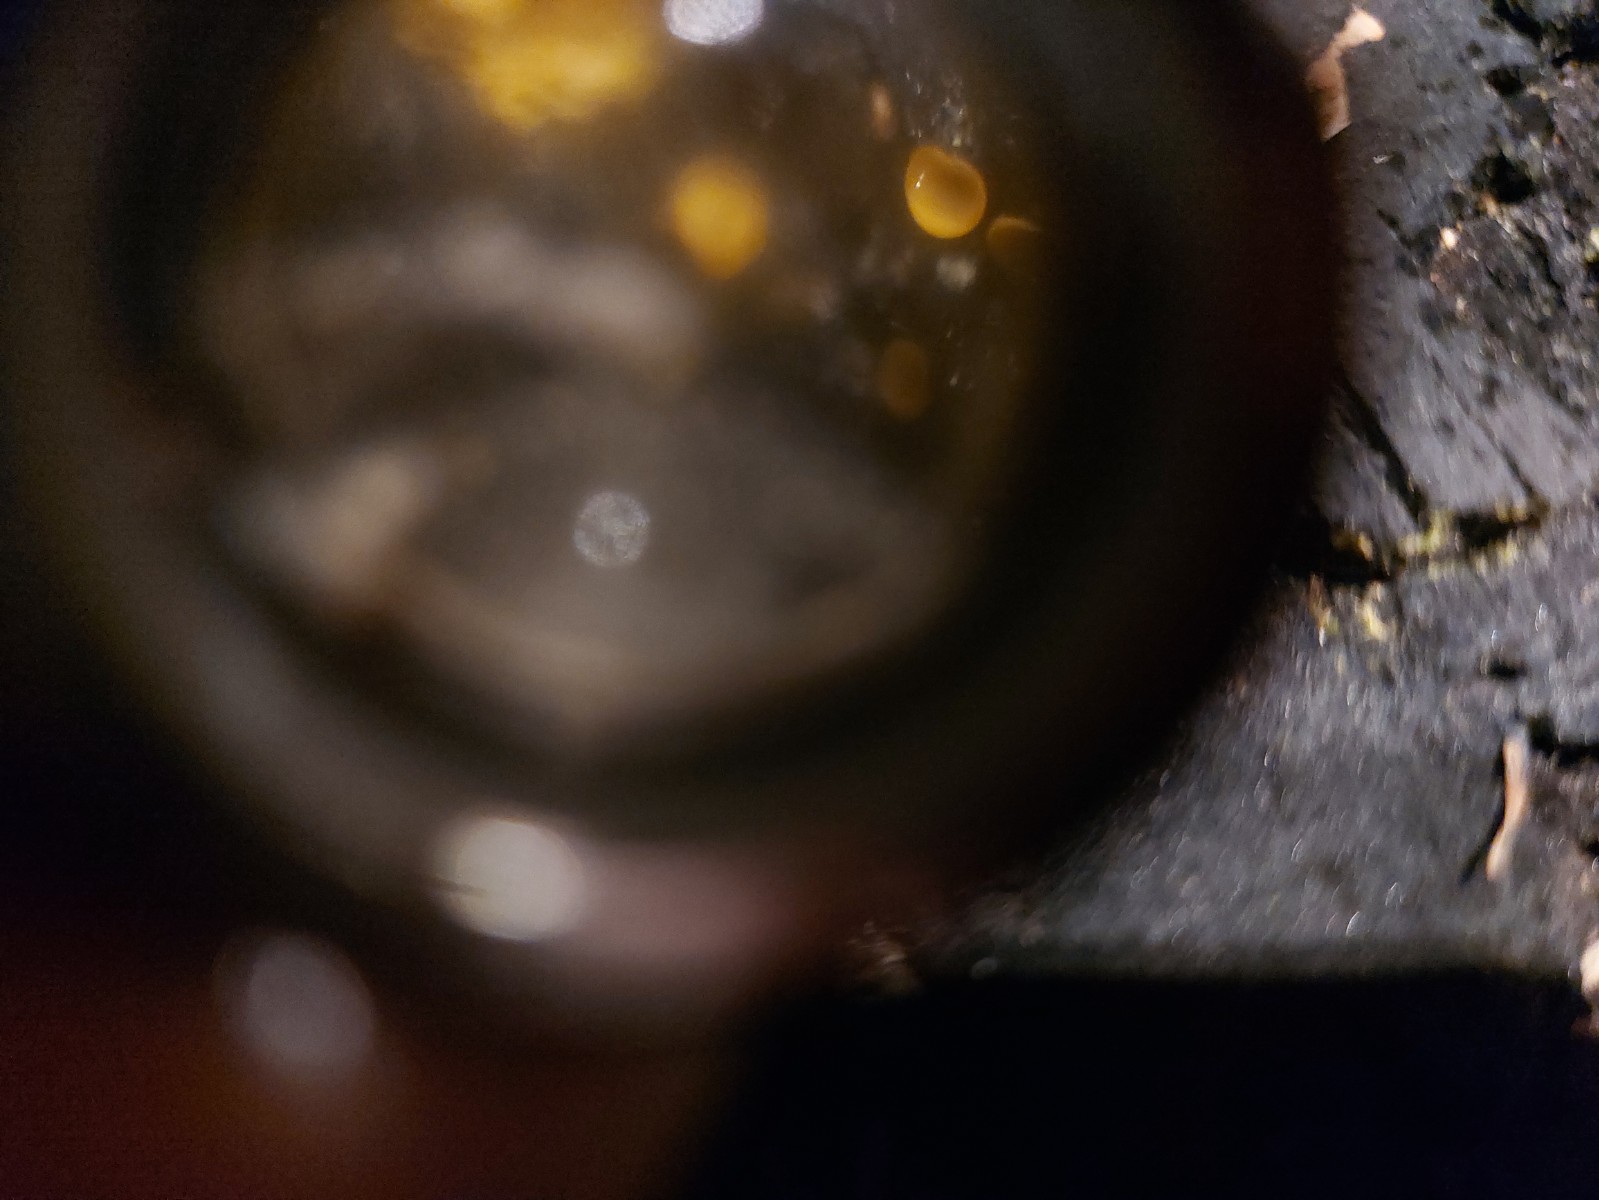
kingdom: Fungi
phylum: Ascomycota
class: Leotiomycetes
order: Helotiales
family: Pezizellaceae
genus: Calycina
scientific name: Calycina claroflava
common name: snyltende gulskive
